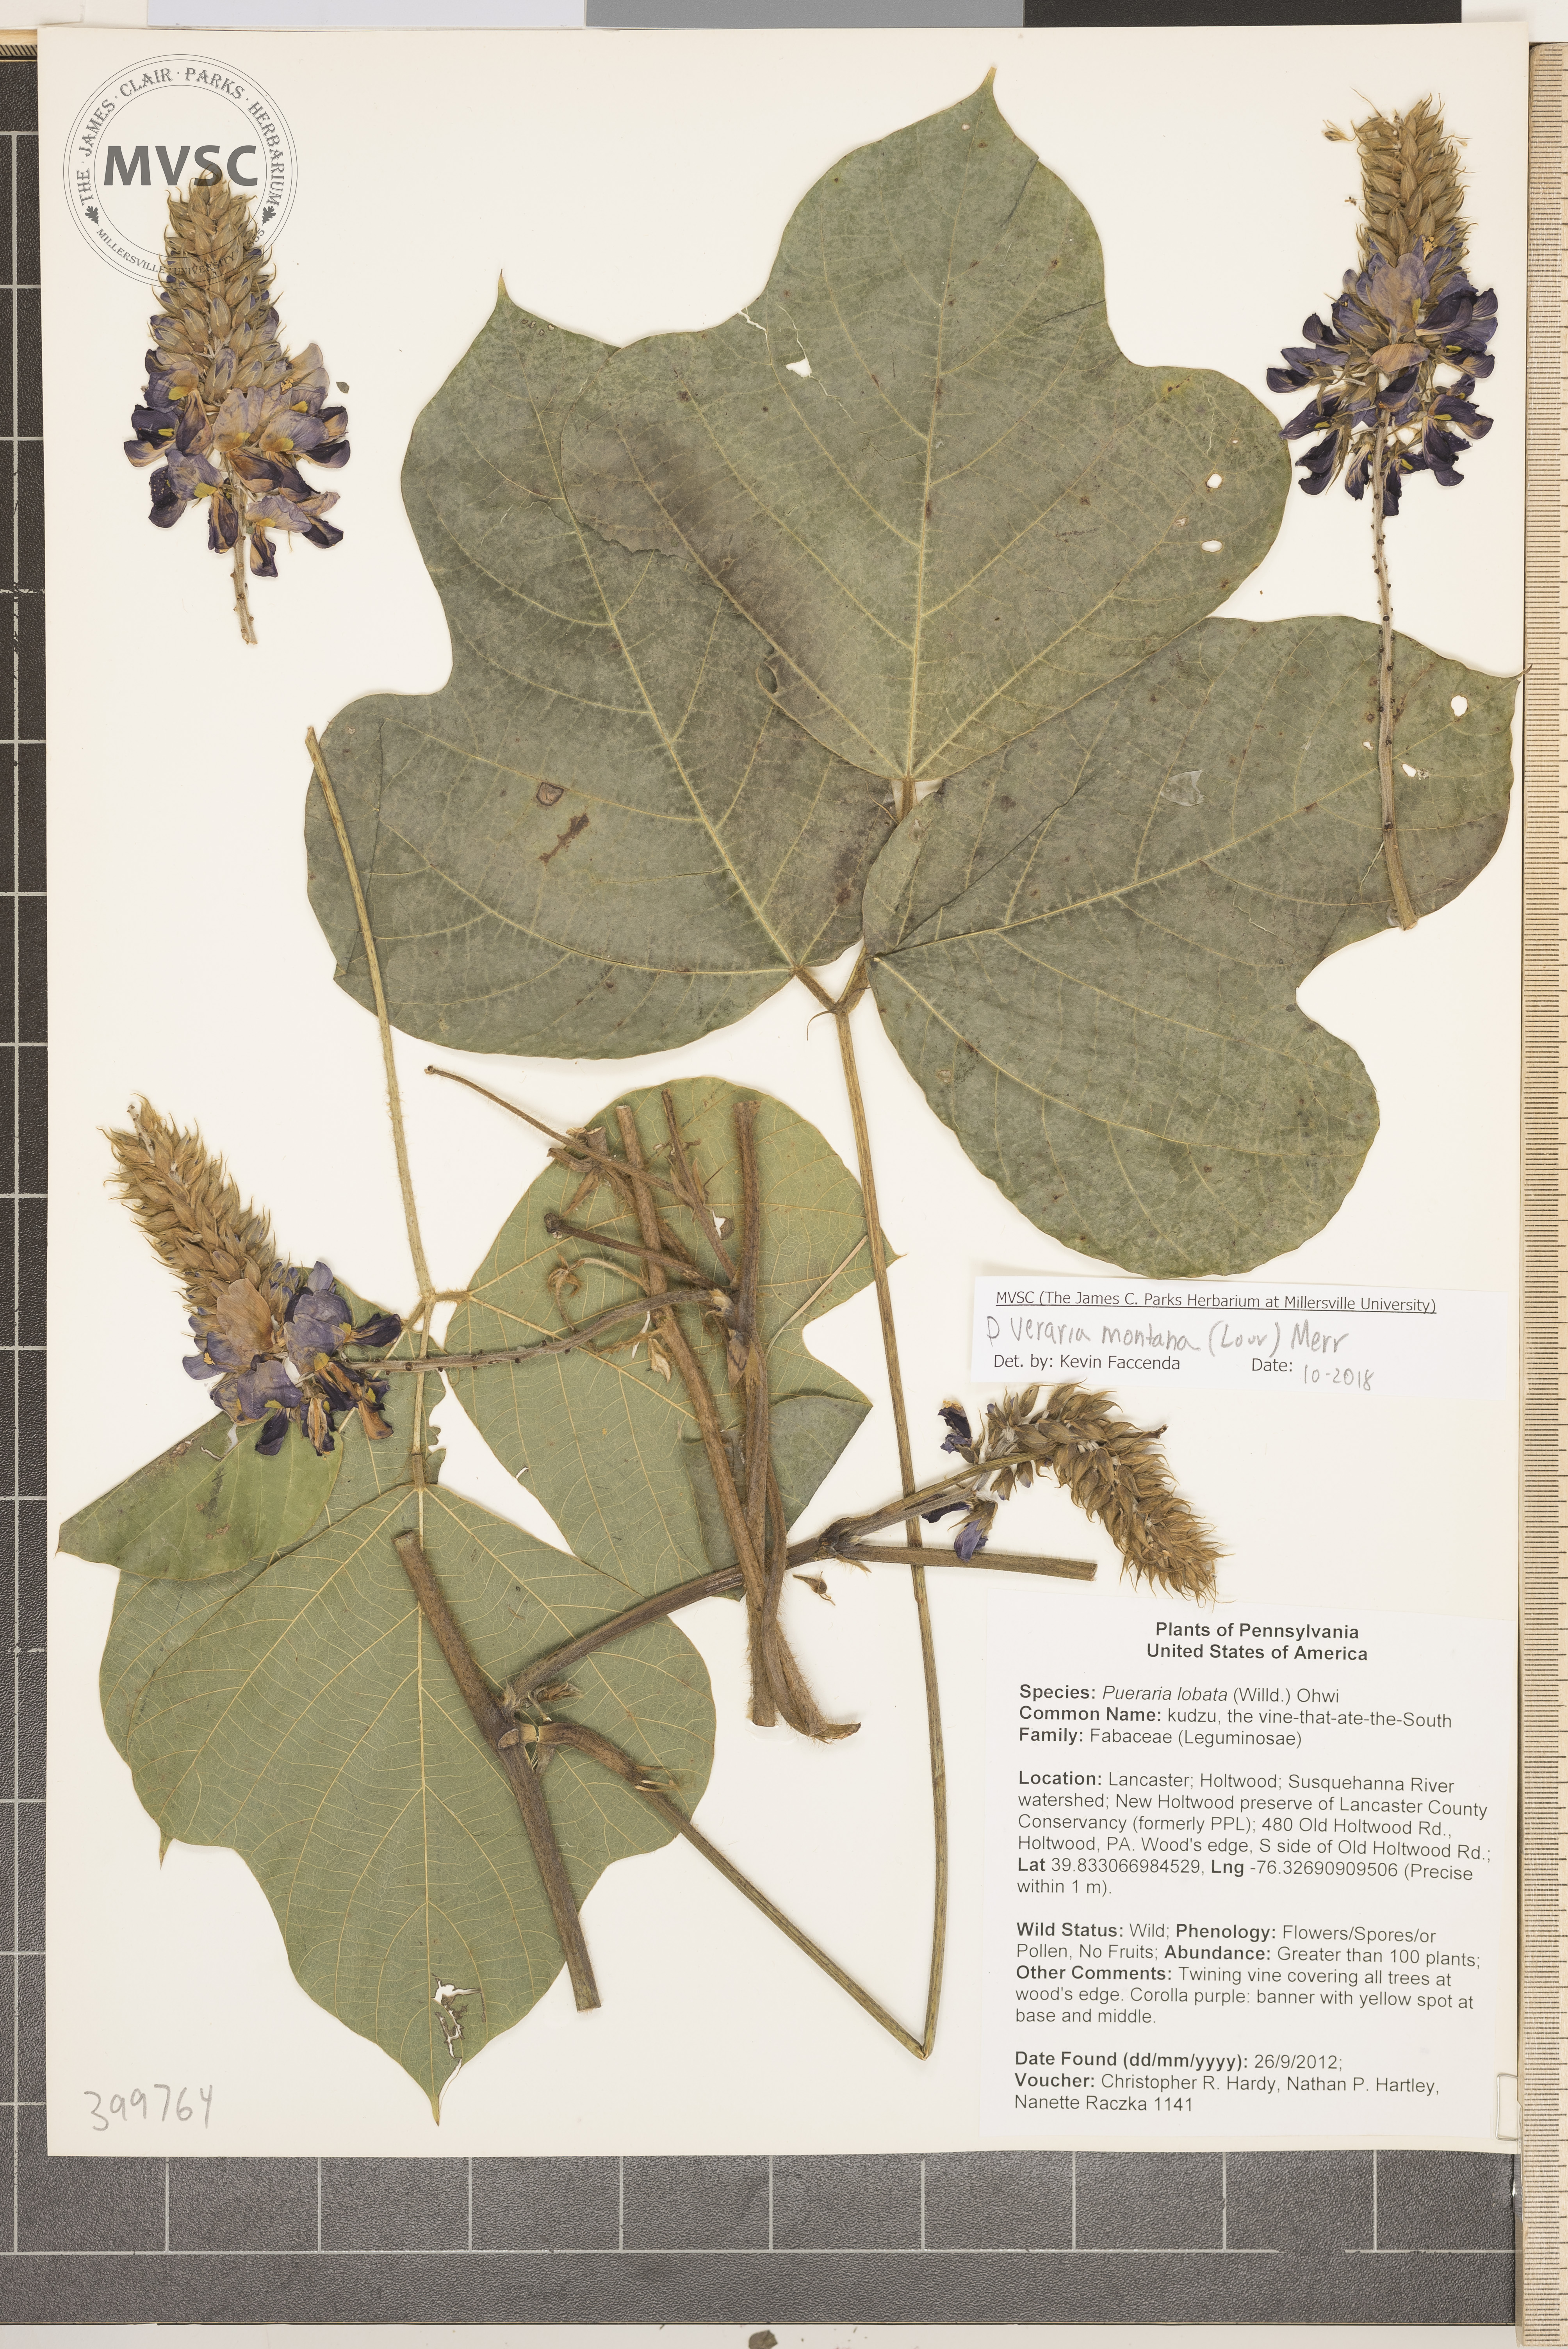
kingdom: Plantae
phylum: Tracheophyta
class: Magnoliopsida
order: Fabales
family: Fabaceae
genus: Pueraria
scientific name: Pueraria montana
